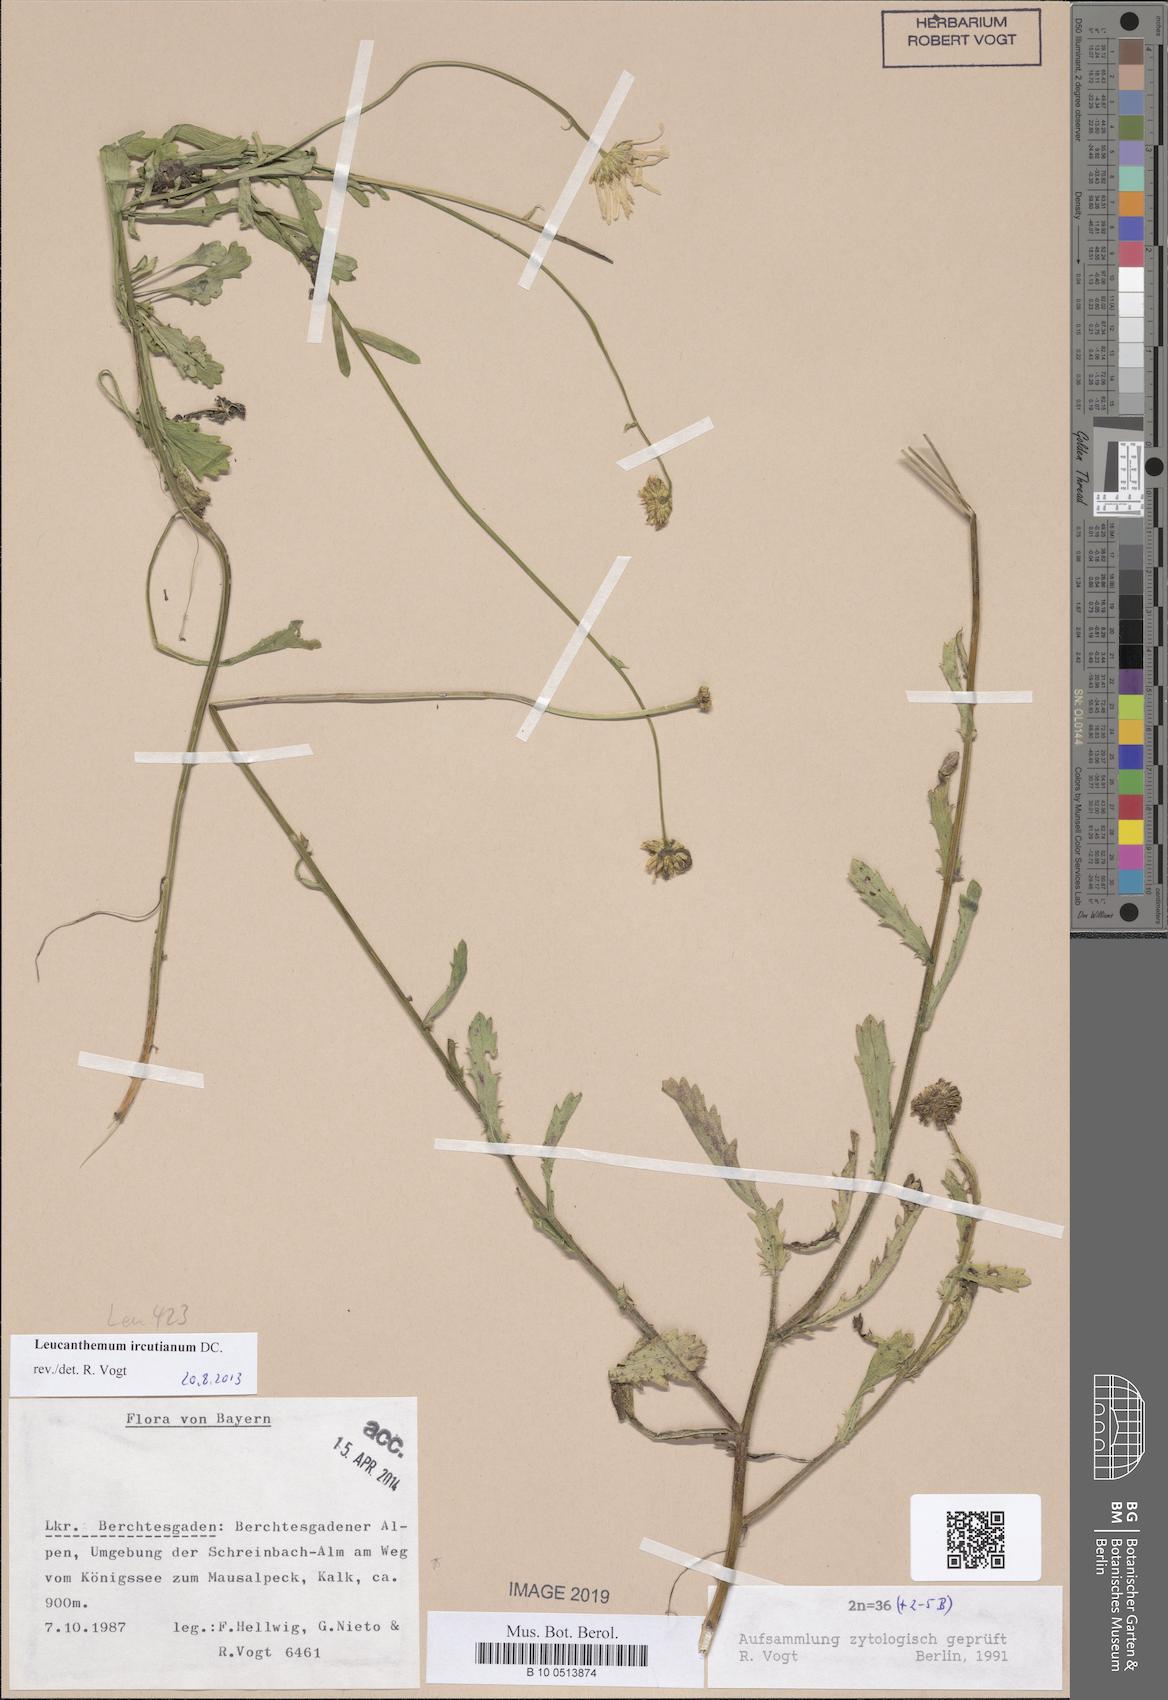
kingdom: Plantae
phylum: Tracheophyta
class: Magnoliopsida
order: Asterales
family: Asteraceae
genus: Leucanthemum
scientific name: Leucanthemum ircutianum
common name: Daisy
